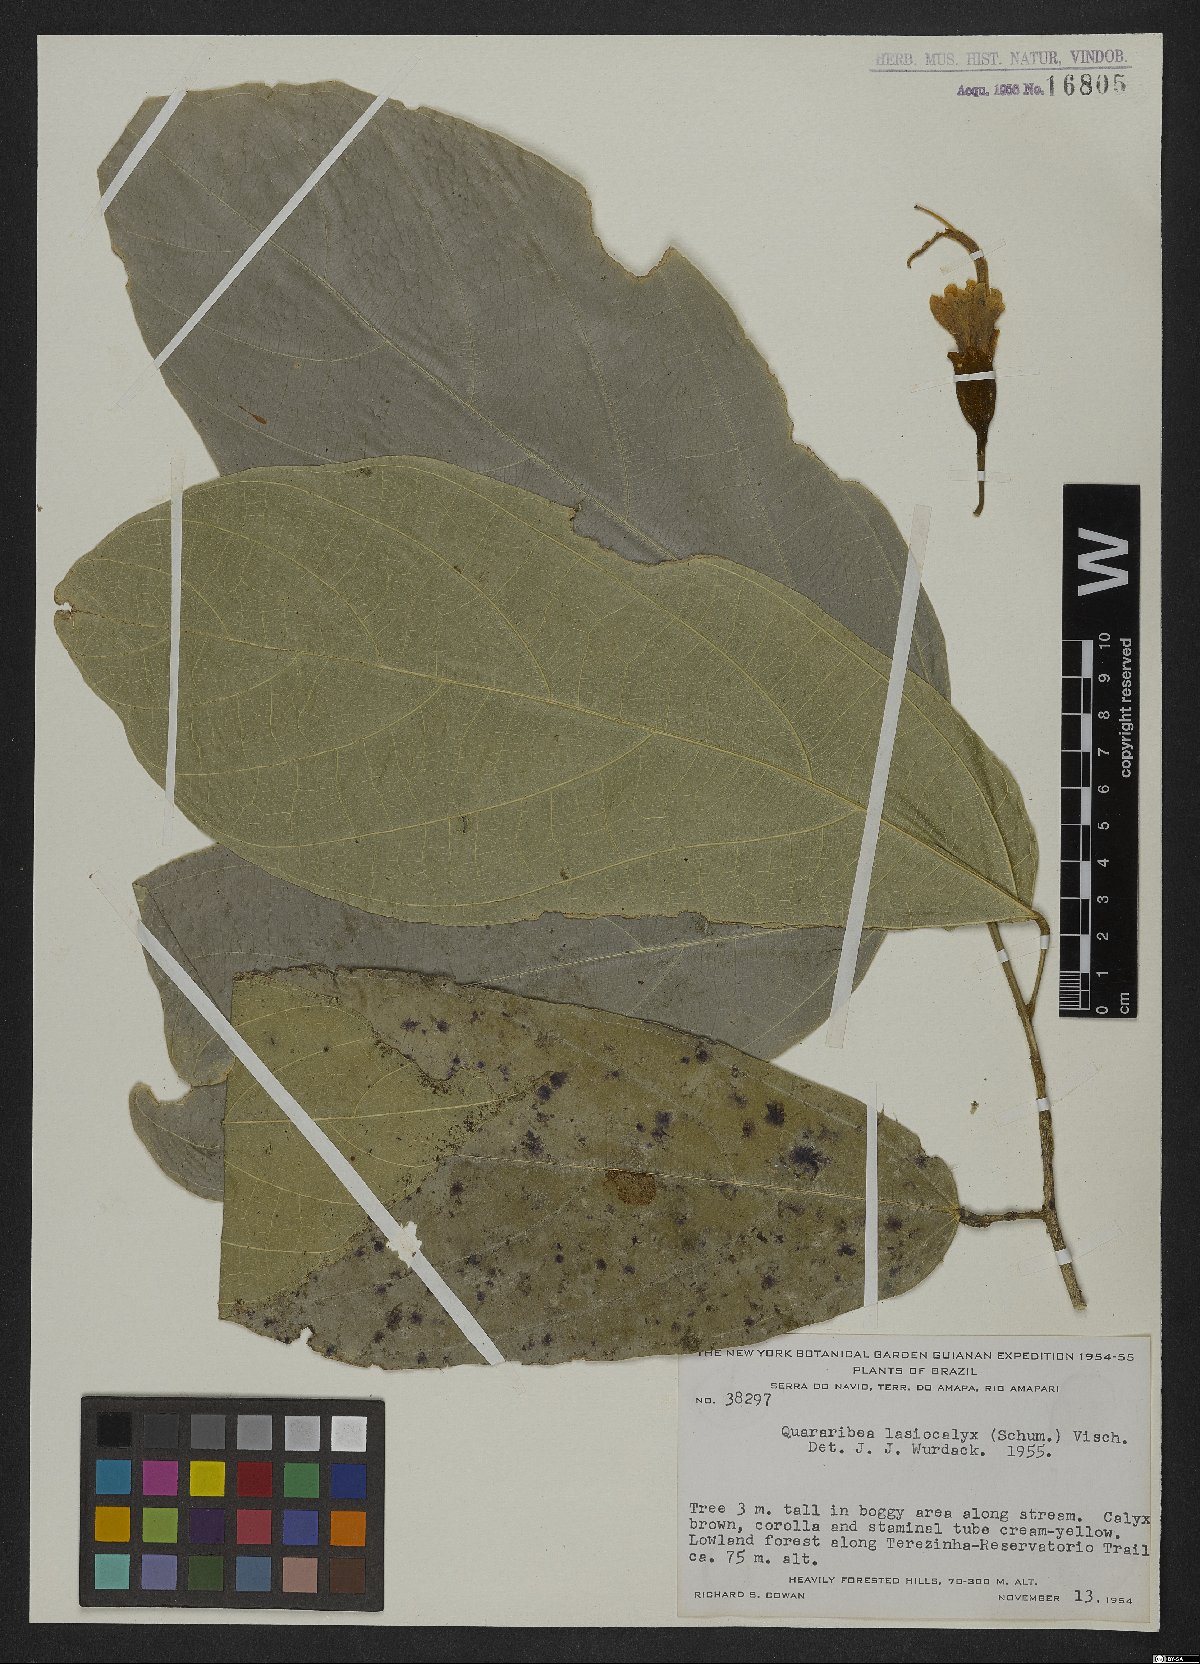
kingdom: Plantae
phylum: Tracheophyta
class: Magnoliopsida
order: Malvales
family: Malvaceae
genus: Matisia
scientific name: Matisia lasiocalyx
